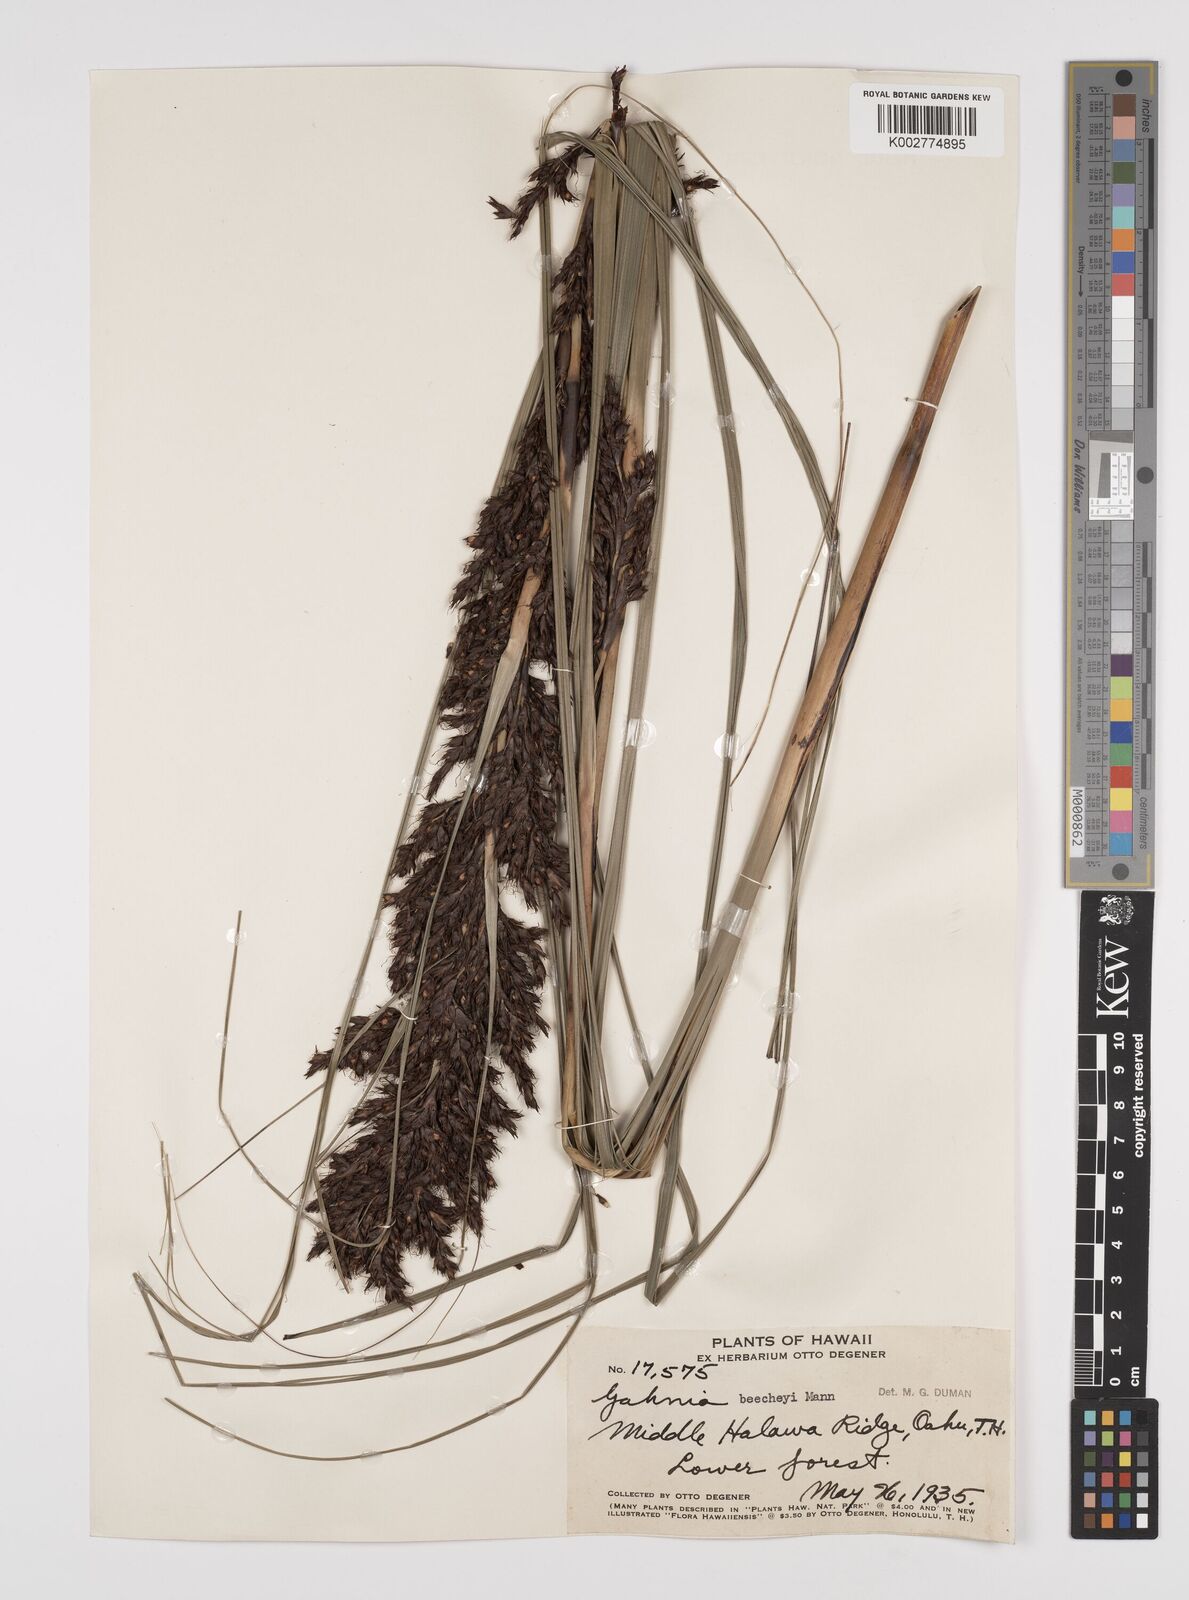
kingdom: Plantae
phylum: Tracheophyta
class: Liliopsida
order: Poales
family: Cyperaceae
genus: Gahnia
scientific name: Gahnia beecheyi
